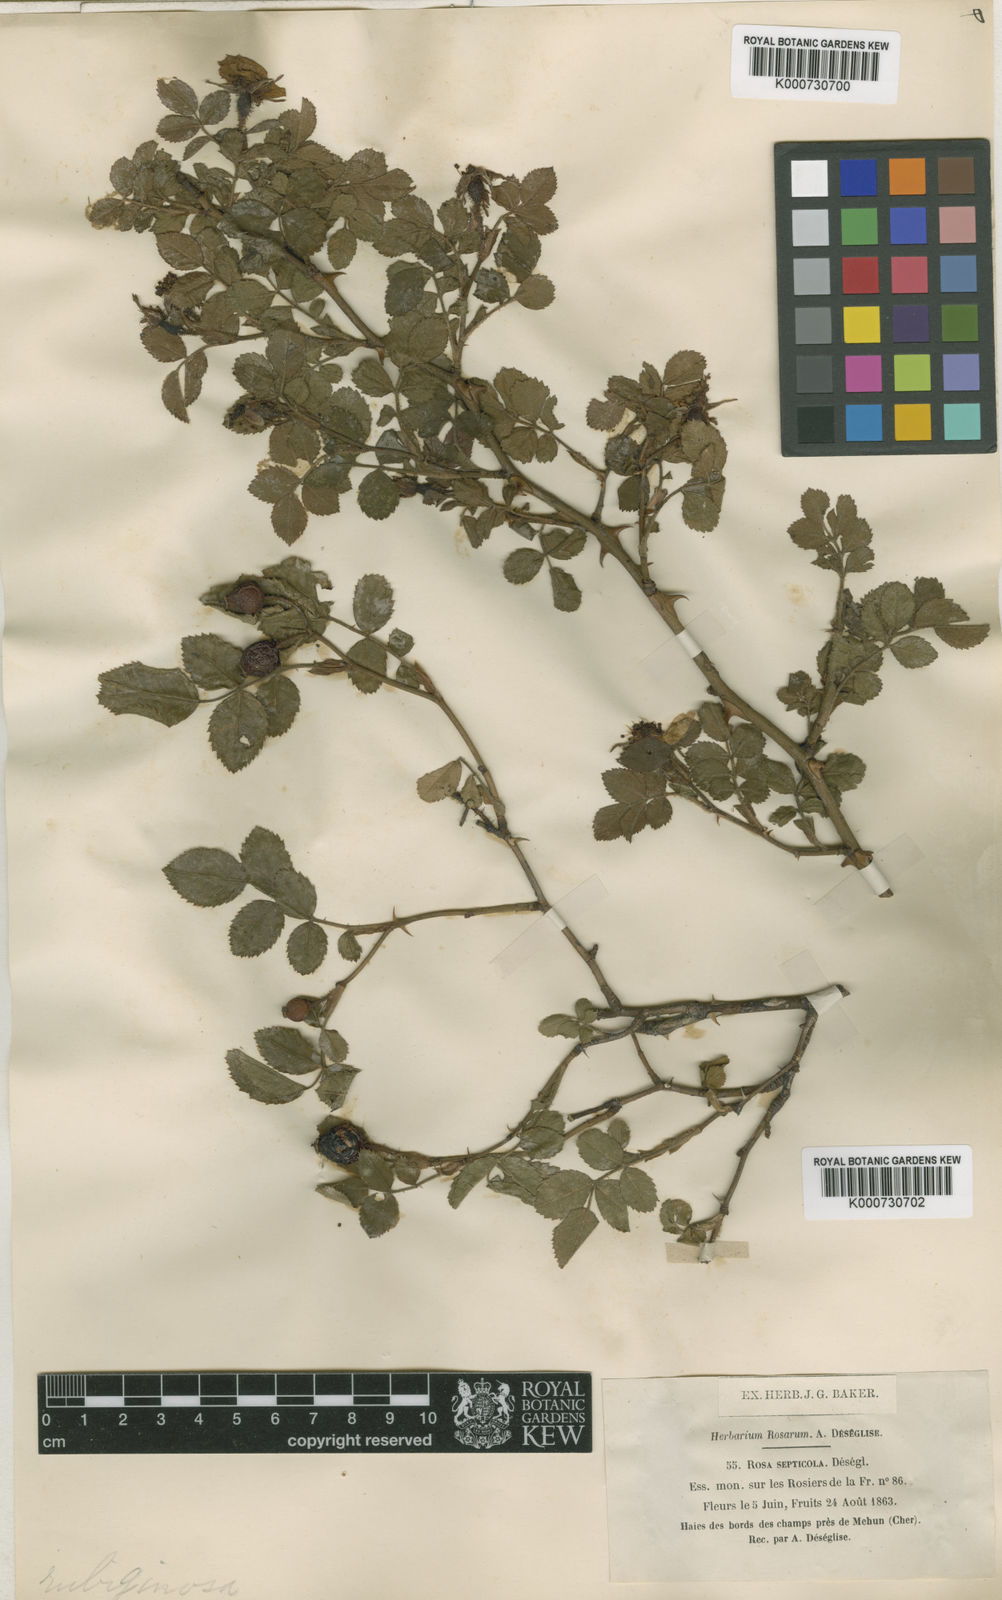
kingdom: Plantae
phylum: Tracheophyta
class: Magnoliopsida
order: Rosales
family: Rosaceae
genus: Rosa
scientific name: Rosa
